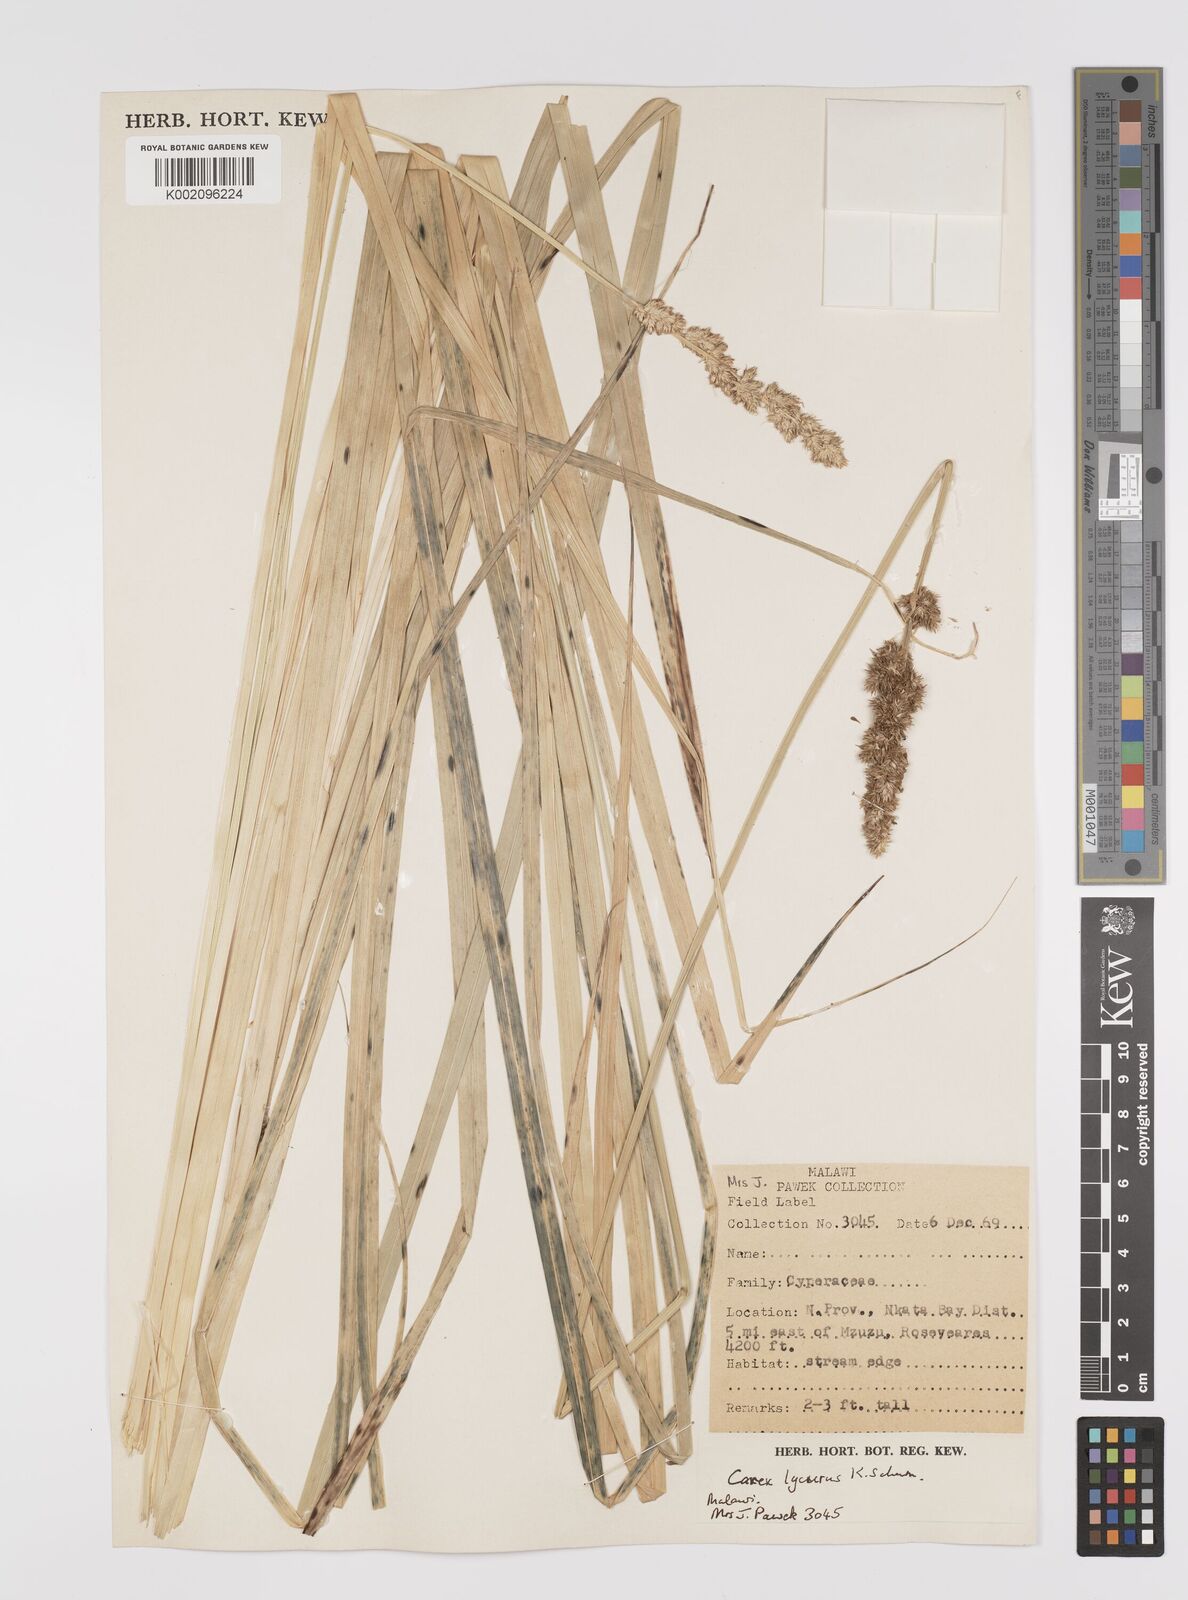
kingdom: Plantae
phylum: Tracheophyta
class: Liliopsida
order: Poales
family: Cyperaceae
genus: Carex
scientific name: Carex lycurus
